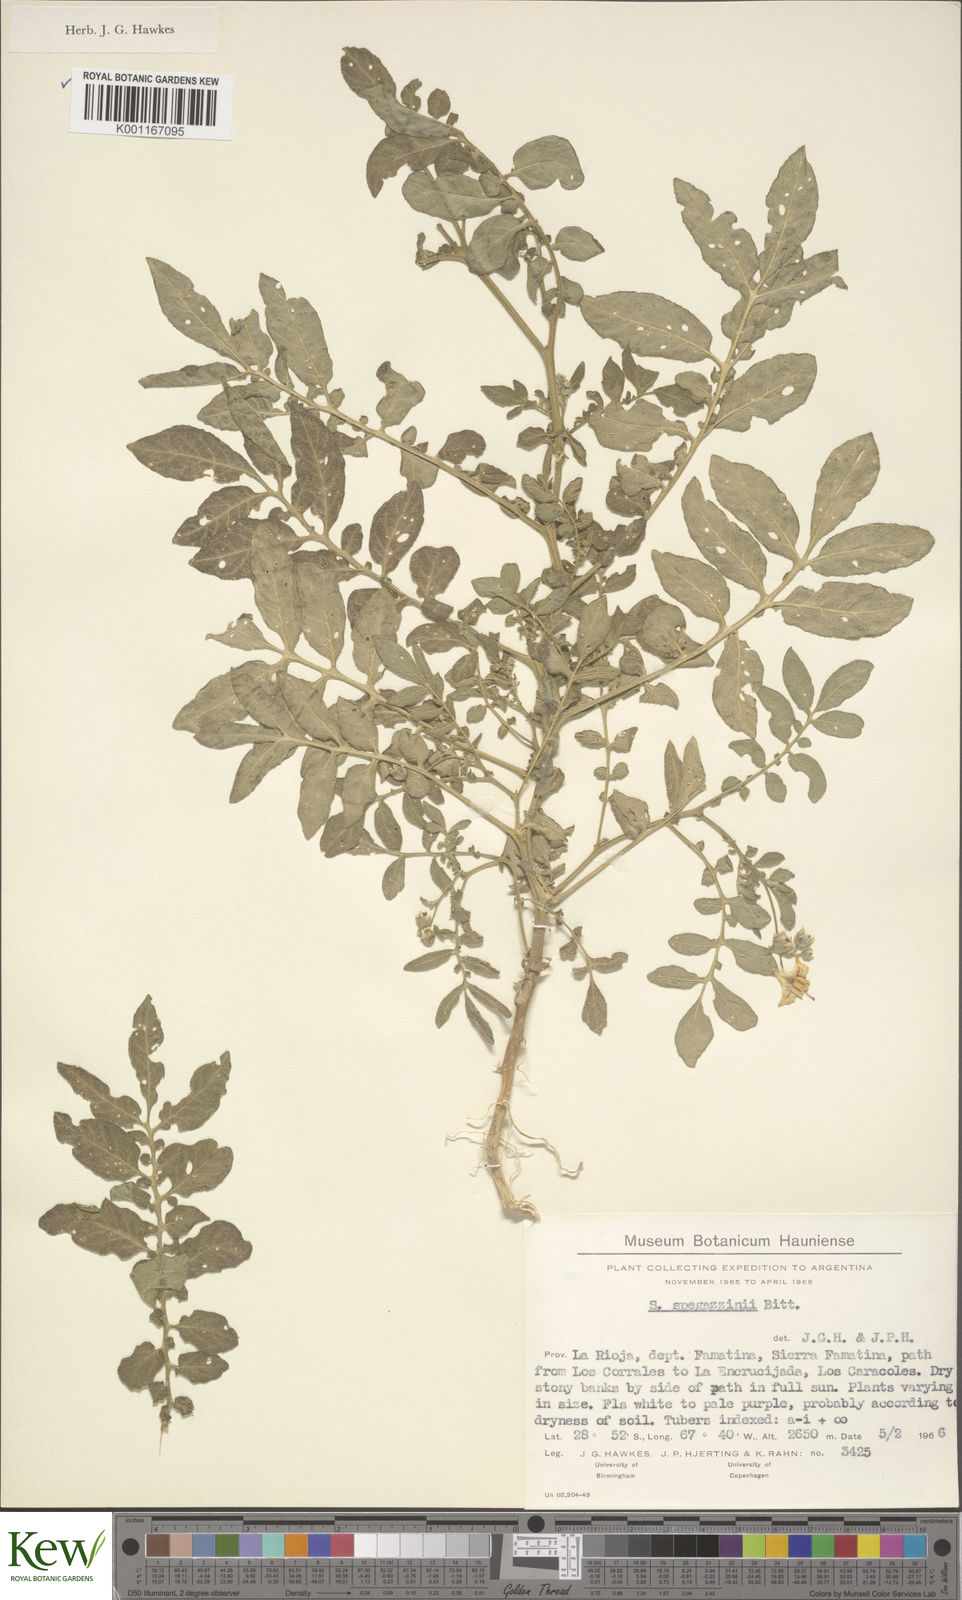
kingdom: Plantae
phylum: Tracheophyta
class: Magnoliopsida
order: Solanales
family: Solanaceae
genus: Solanum
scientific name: Solanum brevicaule
